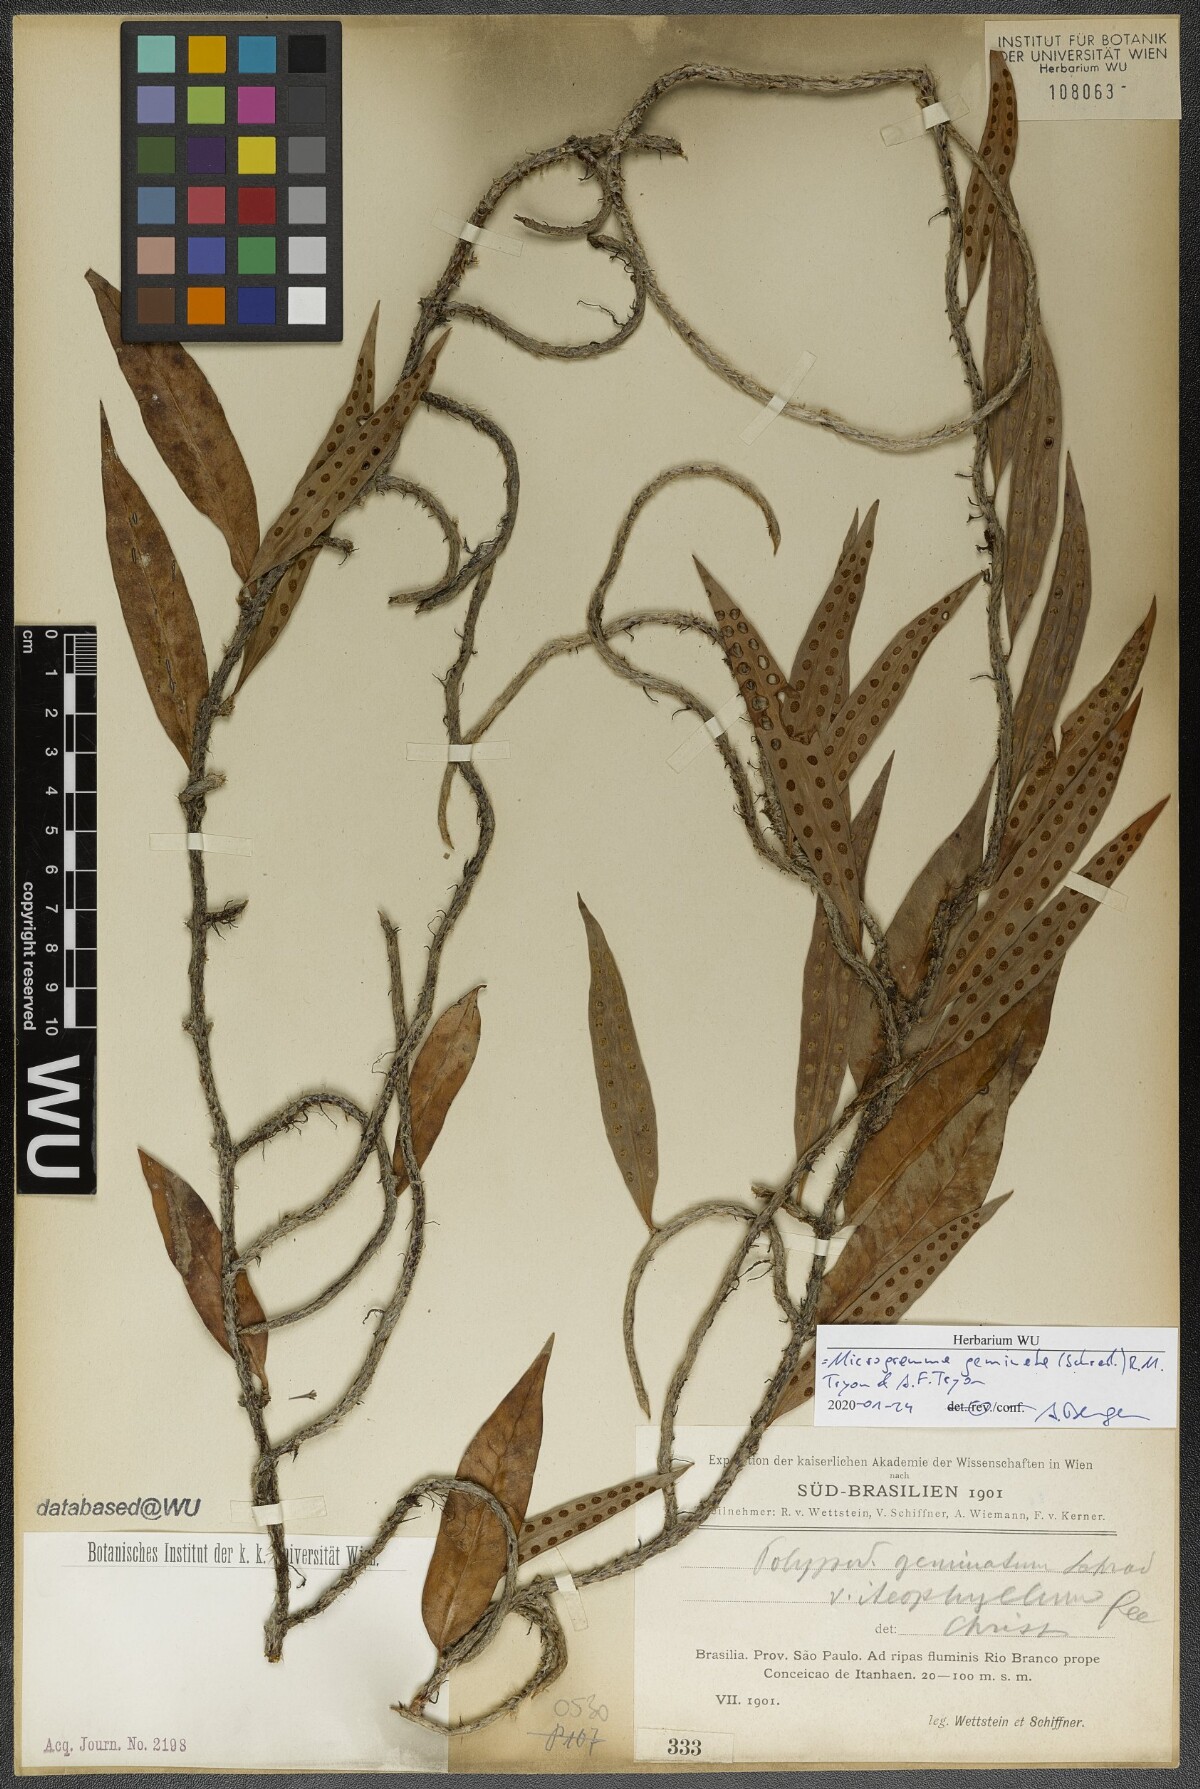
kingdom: Plantae
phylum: Tracheophyta
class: Polypodiopsida
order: Polypodiales
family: Polypodiaceae
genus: Microgramma
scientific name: Microgramma geminata
